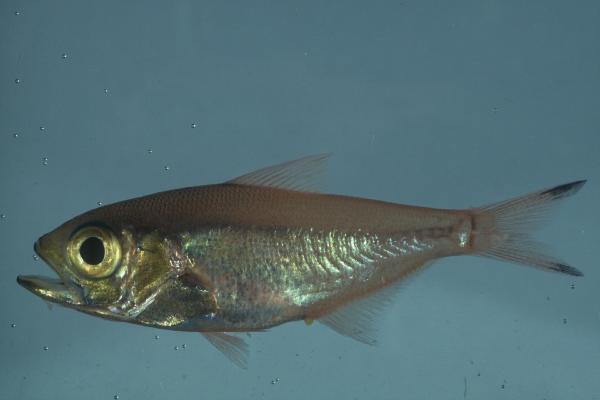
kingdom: Animalia
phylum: Chordata
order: Perciformes
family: Pempheridae
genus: Parapriacanthus
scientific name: Parapriacanthus ransonneti
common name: Pigmy sweeper
